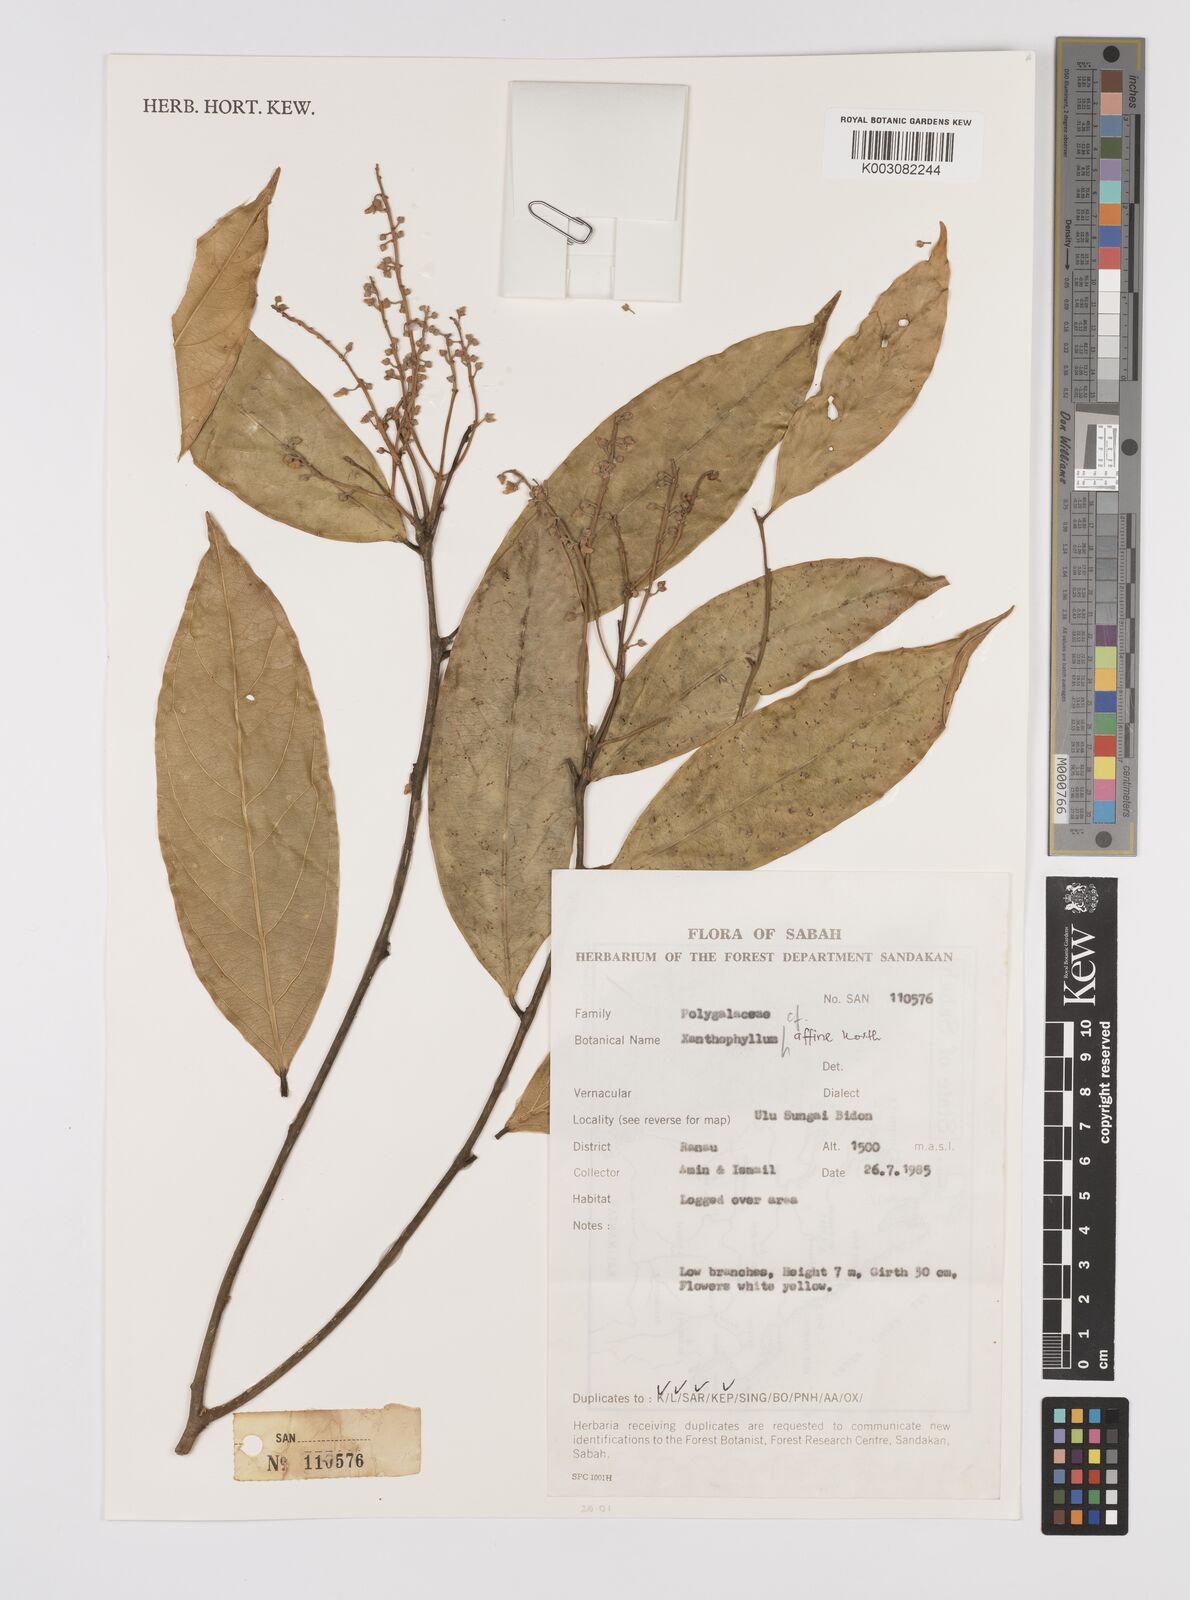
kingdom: Plantae
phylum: Tracheophyta
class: Magnoliopsida
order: Fabales
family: Polygalaceae
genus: Xanthophyllum
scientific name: Xanthophyllum flavescens
